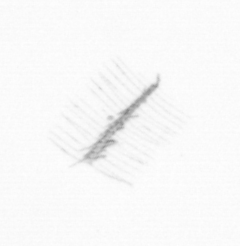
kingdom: Chromista
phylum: Ochrophyta
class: Bacillariophyceae
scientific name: Bacillariophyceae
